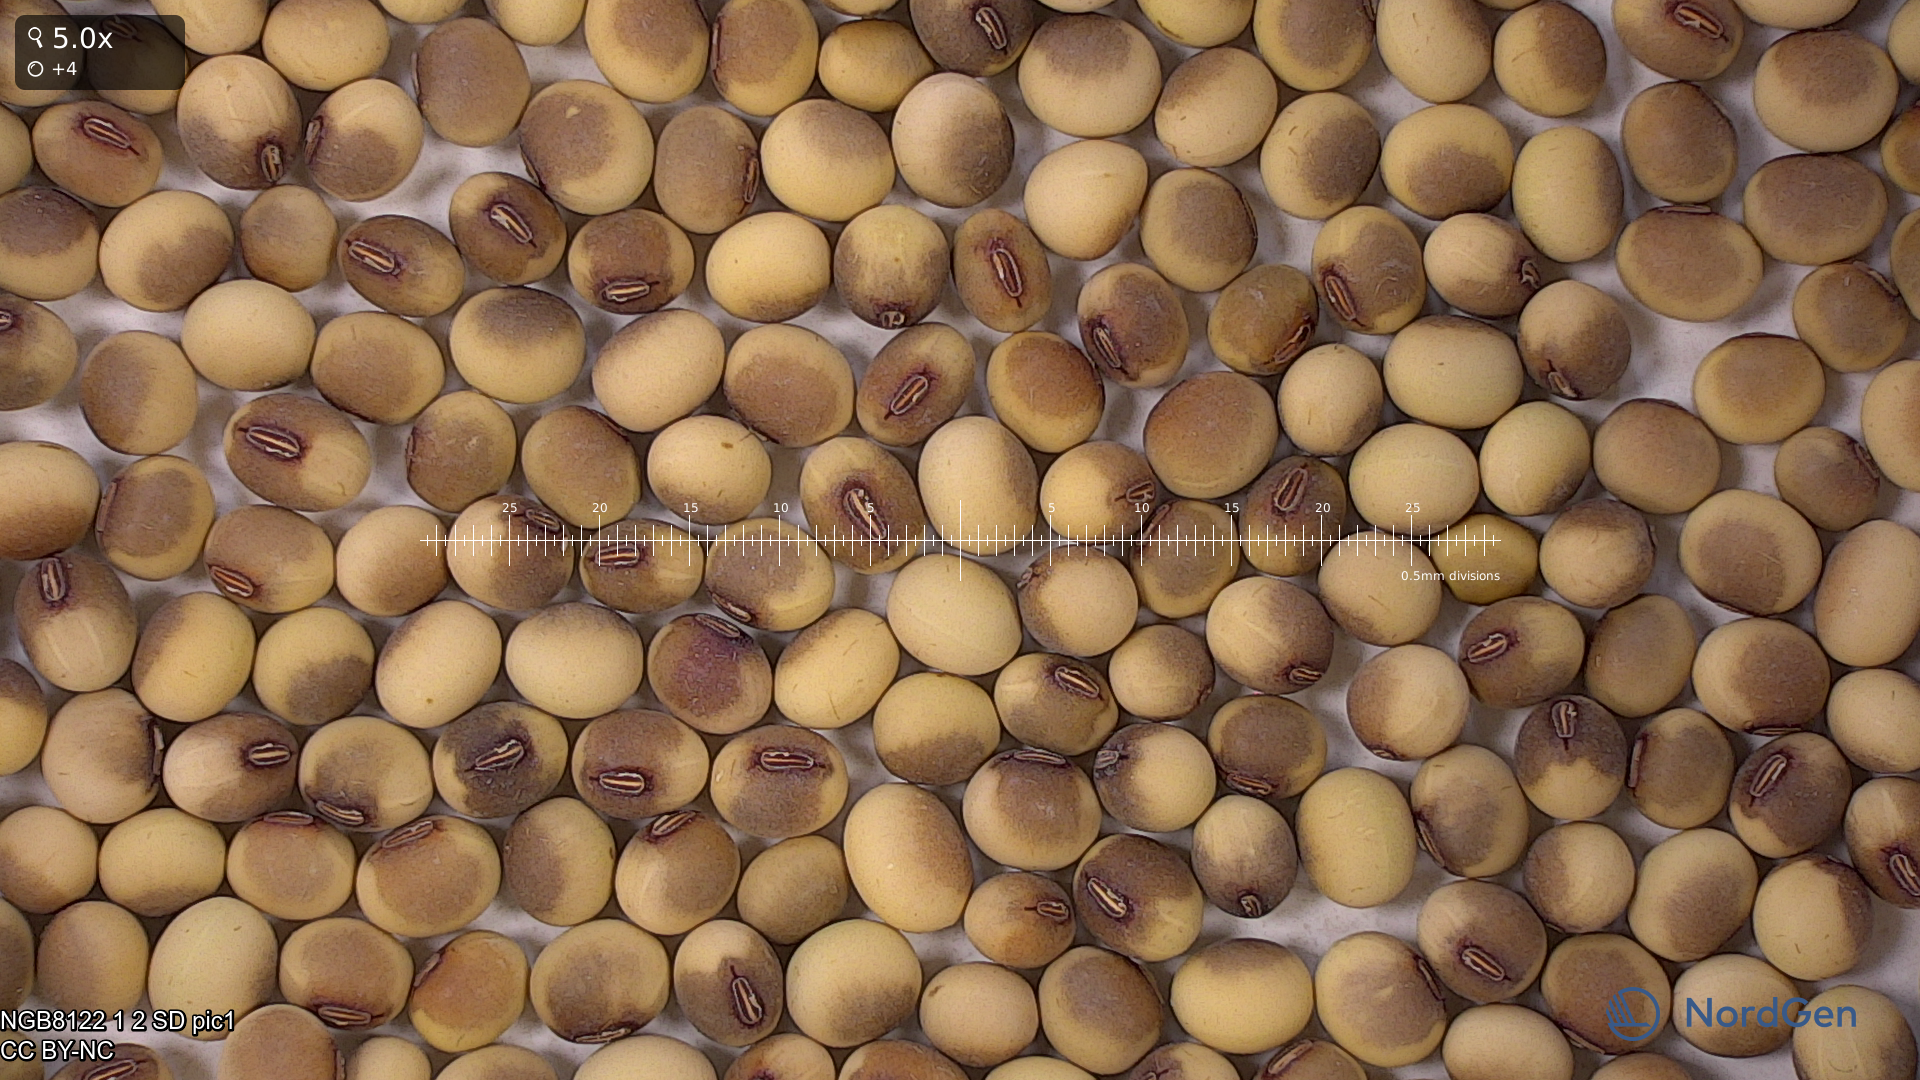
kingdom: Plantae
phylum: Tracheophyta
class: Magnoliopsida
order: Fabales
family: Fabaceae
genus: Glycine
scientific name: Glycine max
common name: Soya-bean
